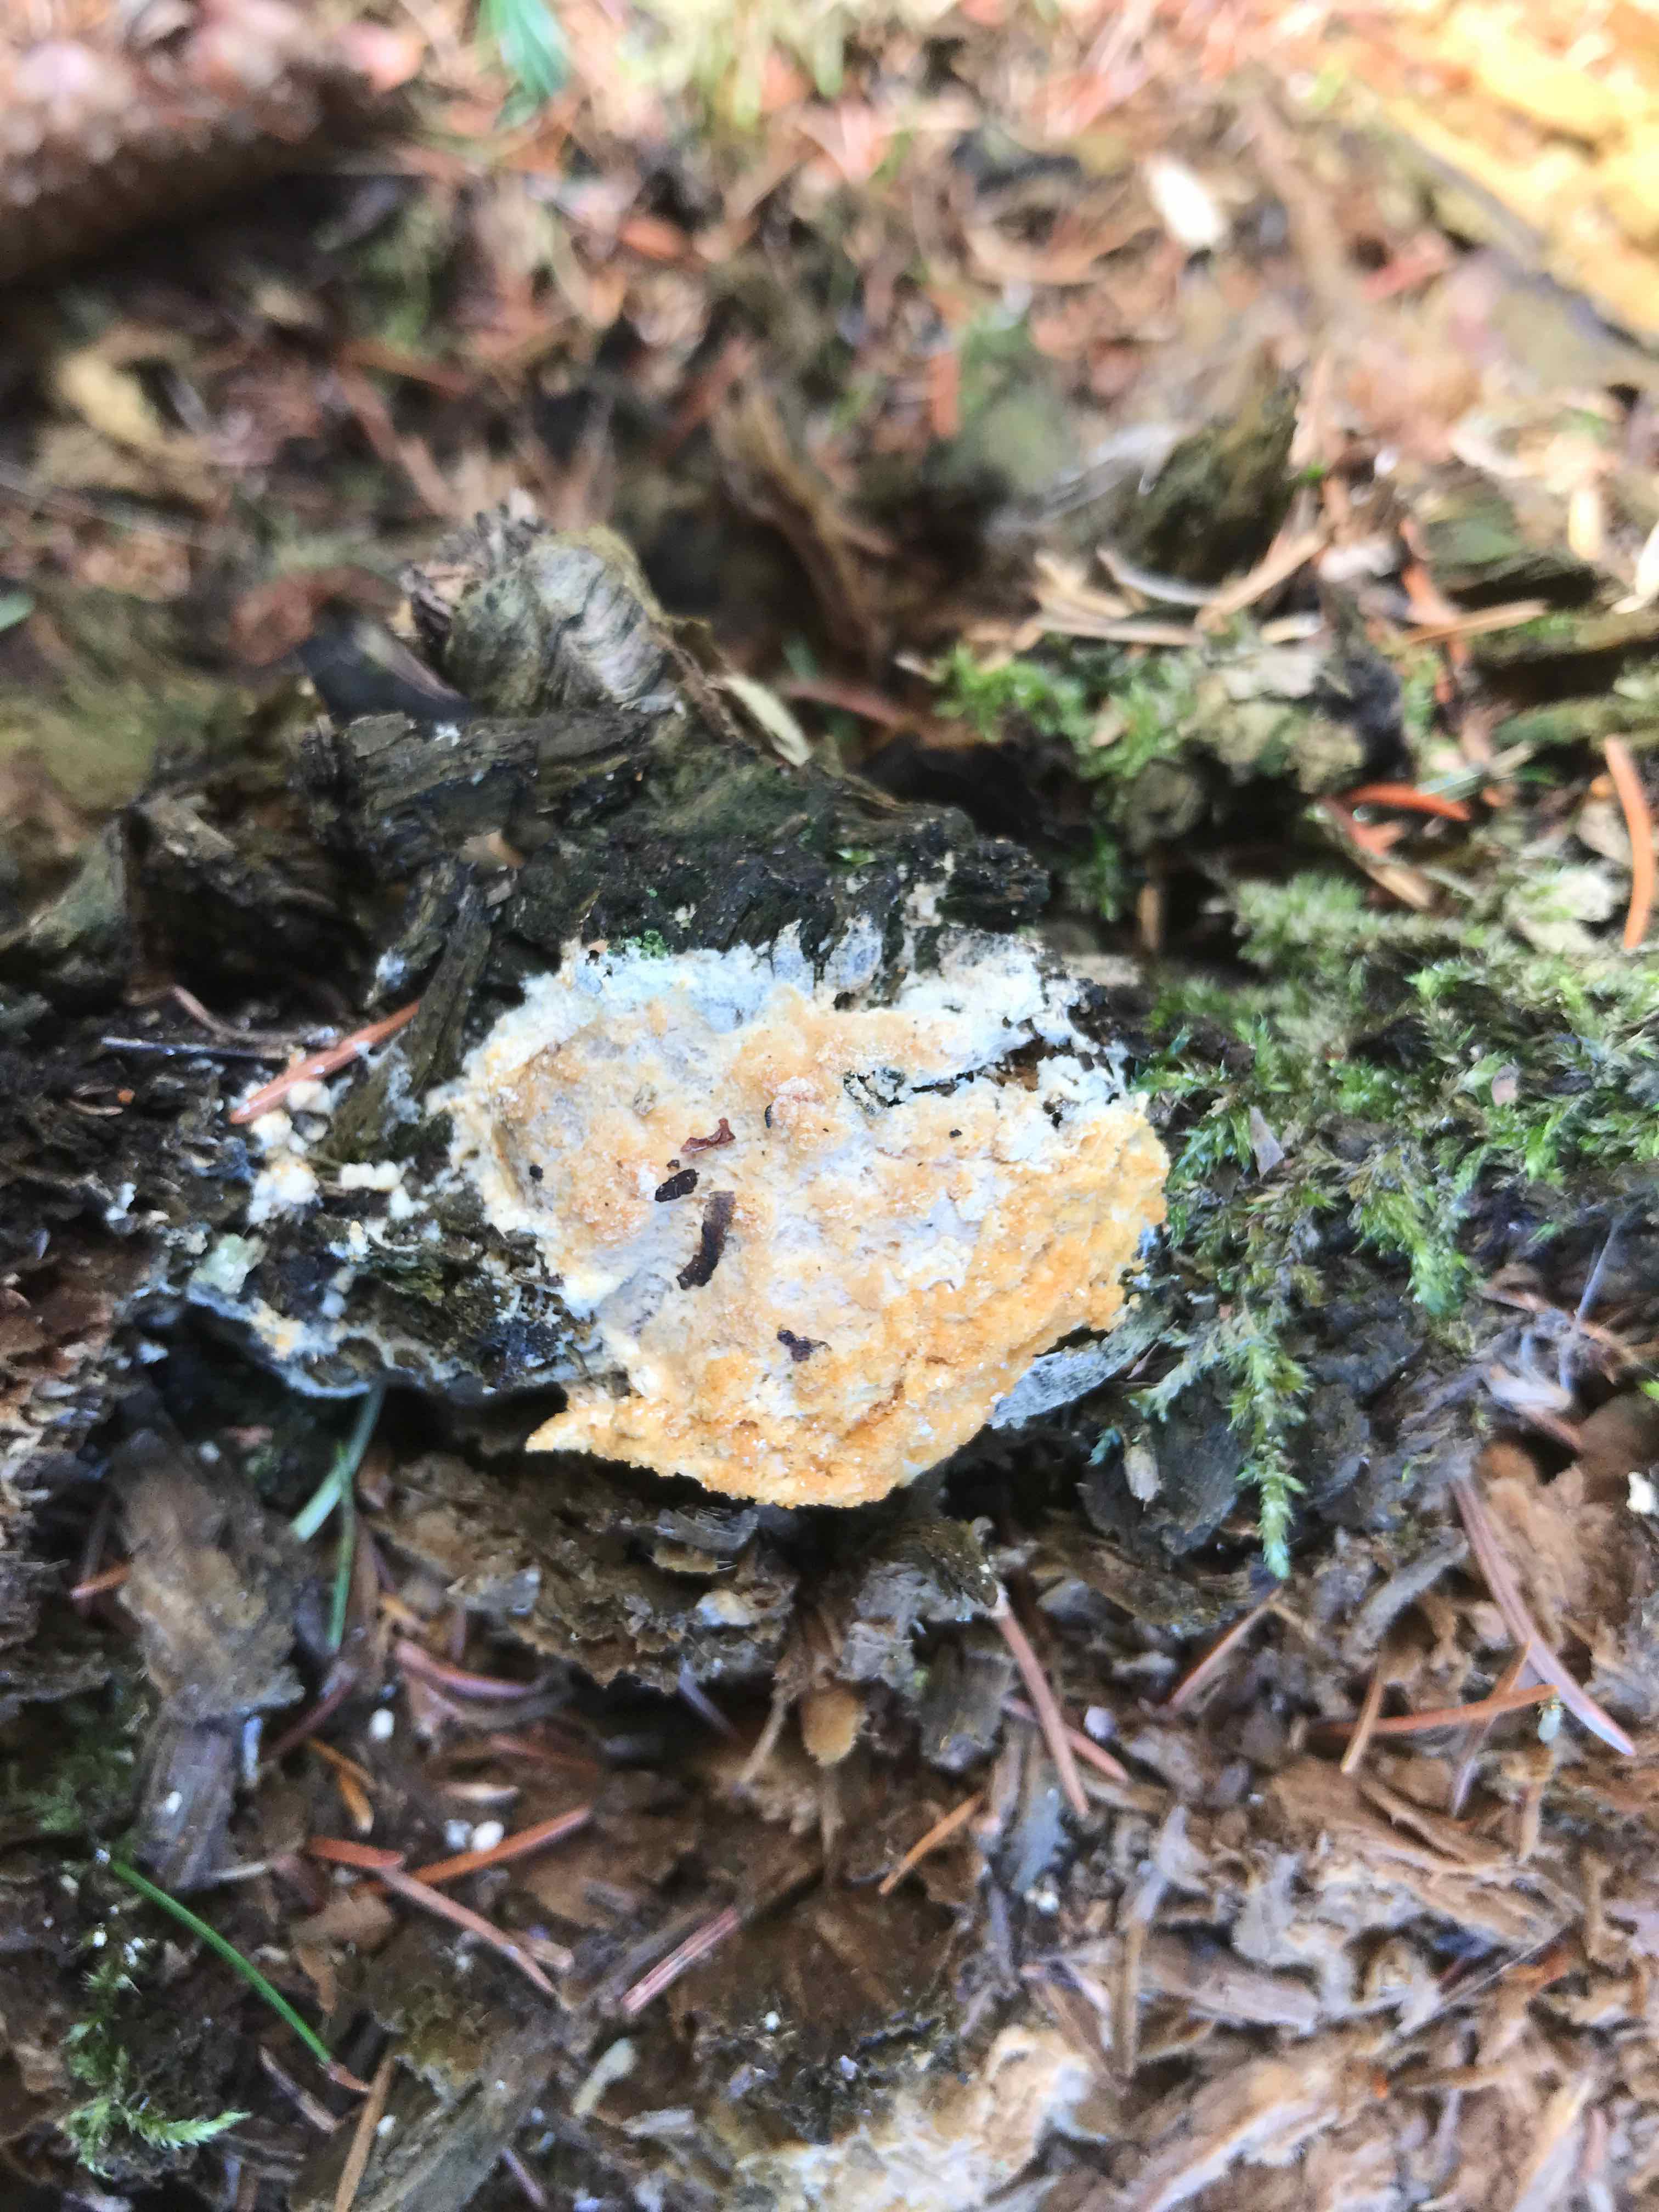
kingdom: Protozoa
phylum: Mycetozoa
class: Myxomycetes
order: Physarales
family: Physaraceae
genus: Fuligo
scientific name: Fuligo septica
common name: gul troldsmør
